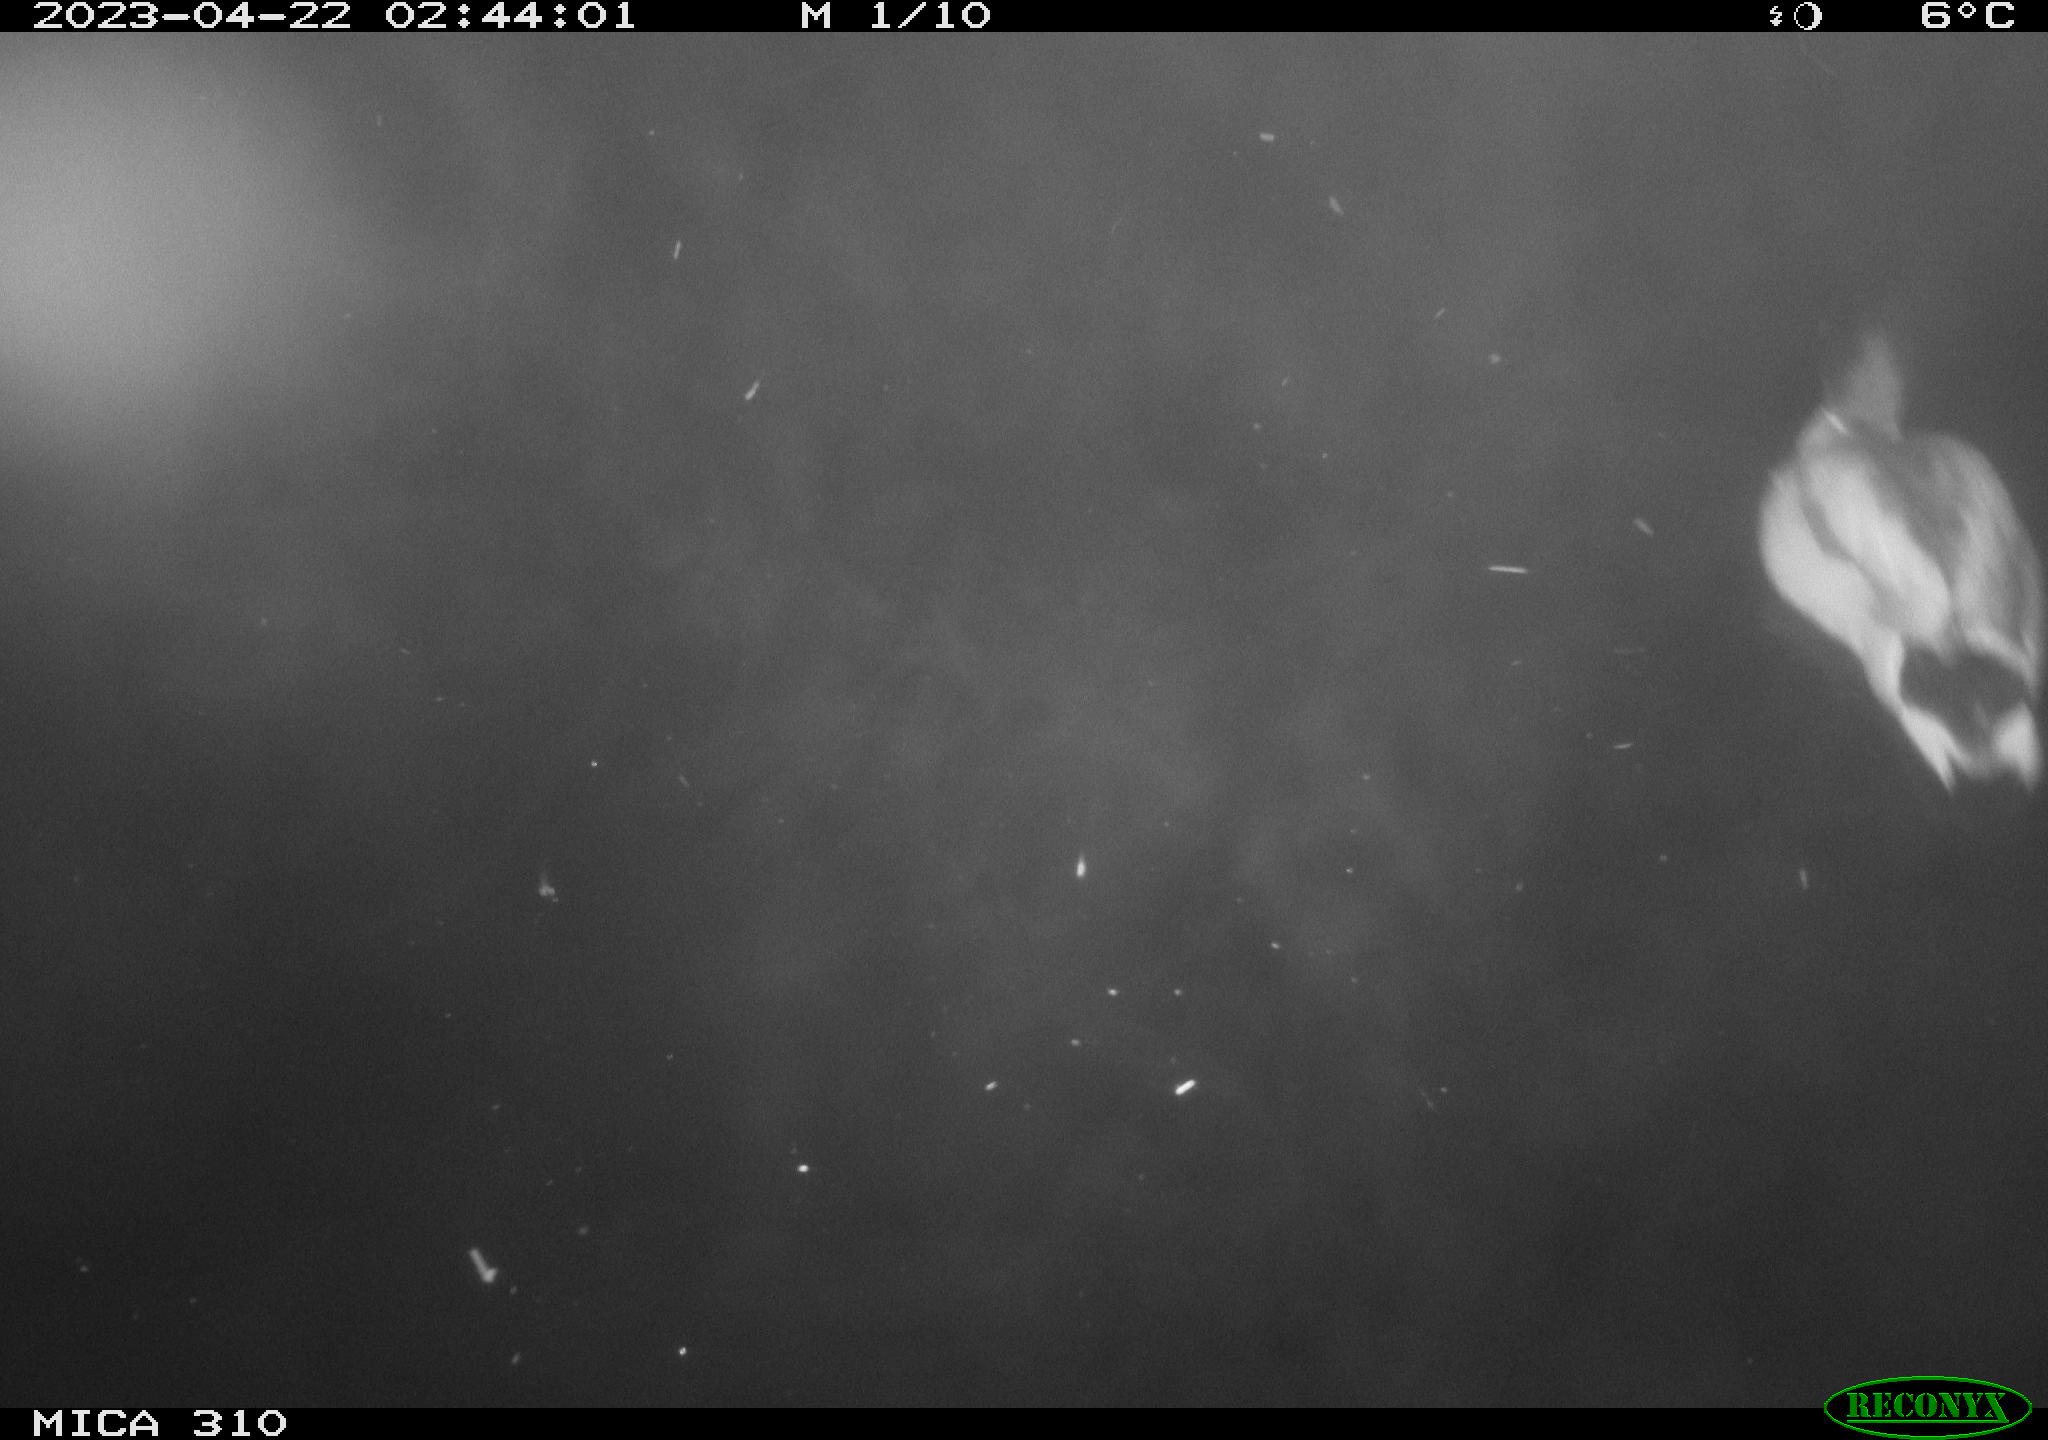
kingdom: Animalia
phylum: Chordata
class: Aves
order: Anseriformes
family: Anatidae
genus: Anas
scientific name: Anas
